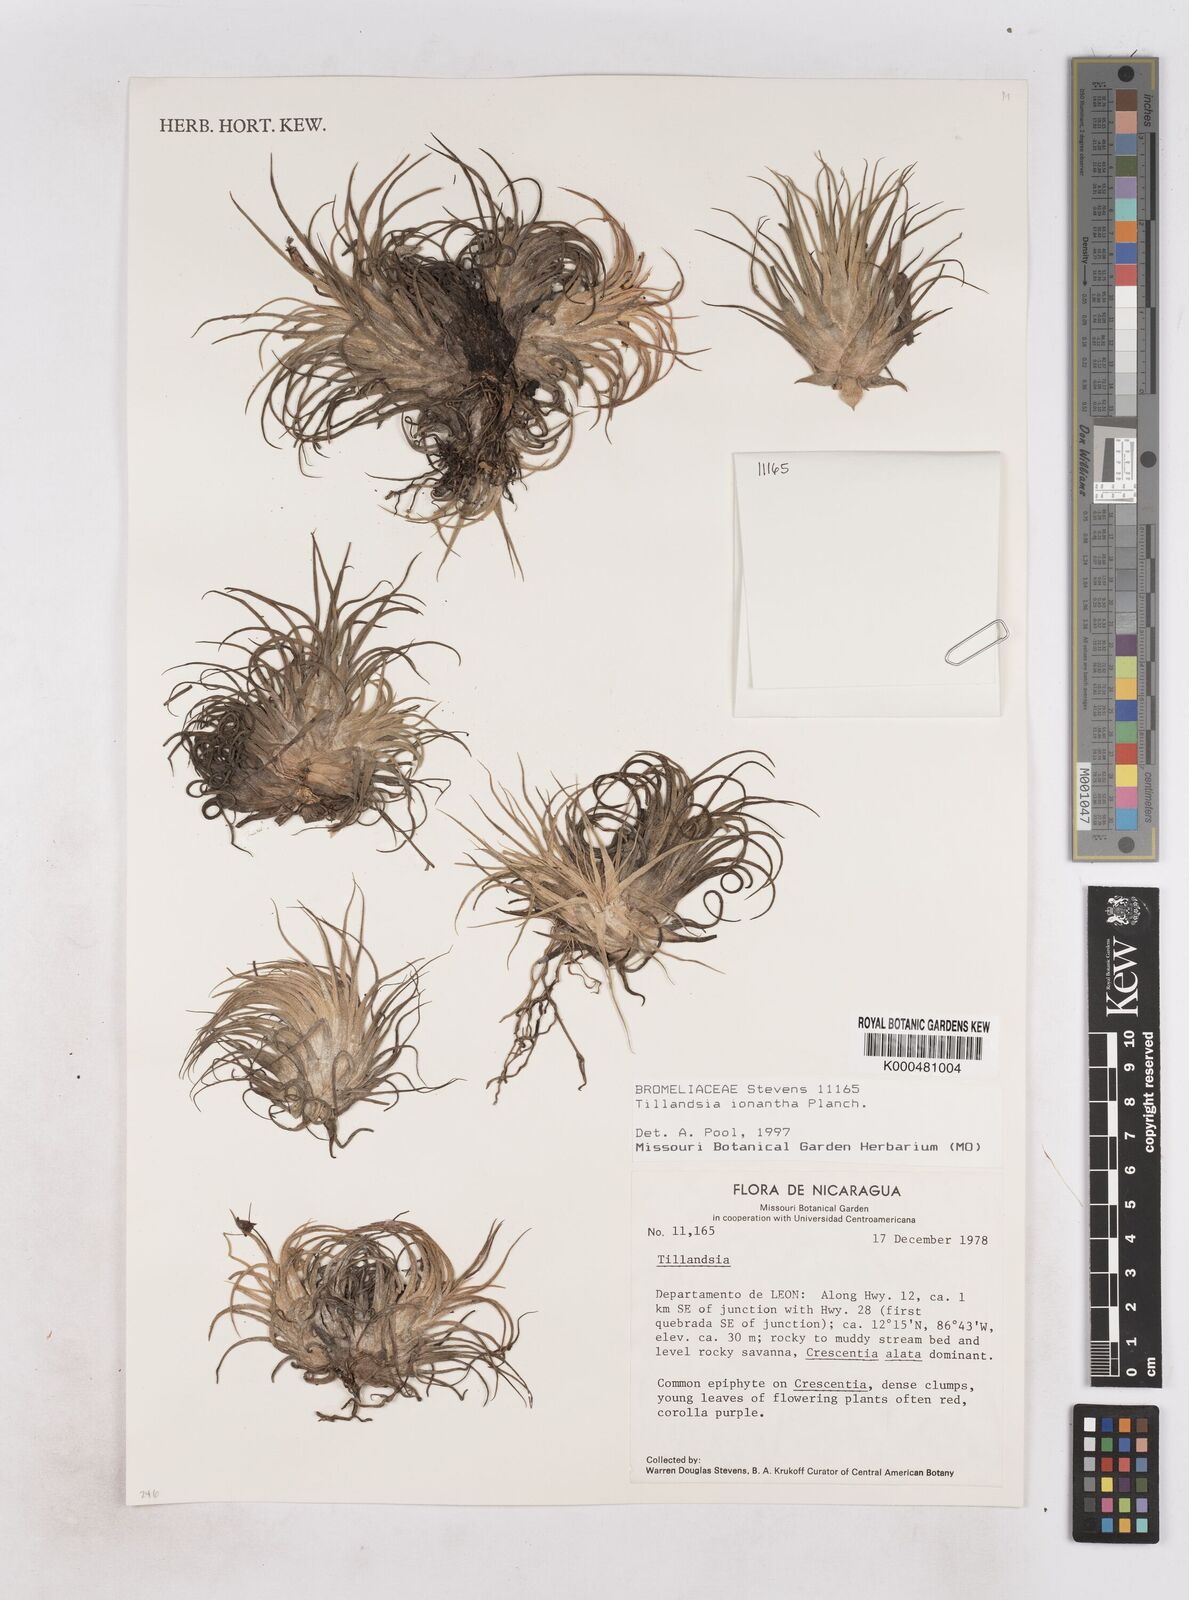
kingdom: Plantae
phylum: Tracheophyta
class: Liliopsida
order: Poales
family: Bromeliaceae
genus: Tillandsia
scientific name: Tillandsia ionantha
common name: Sky plant
